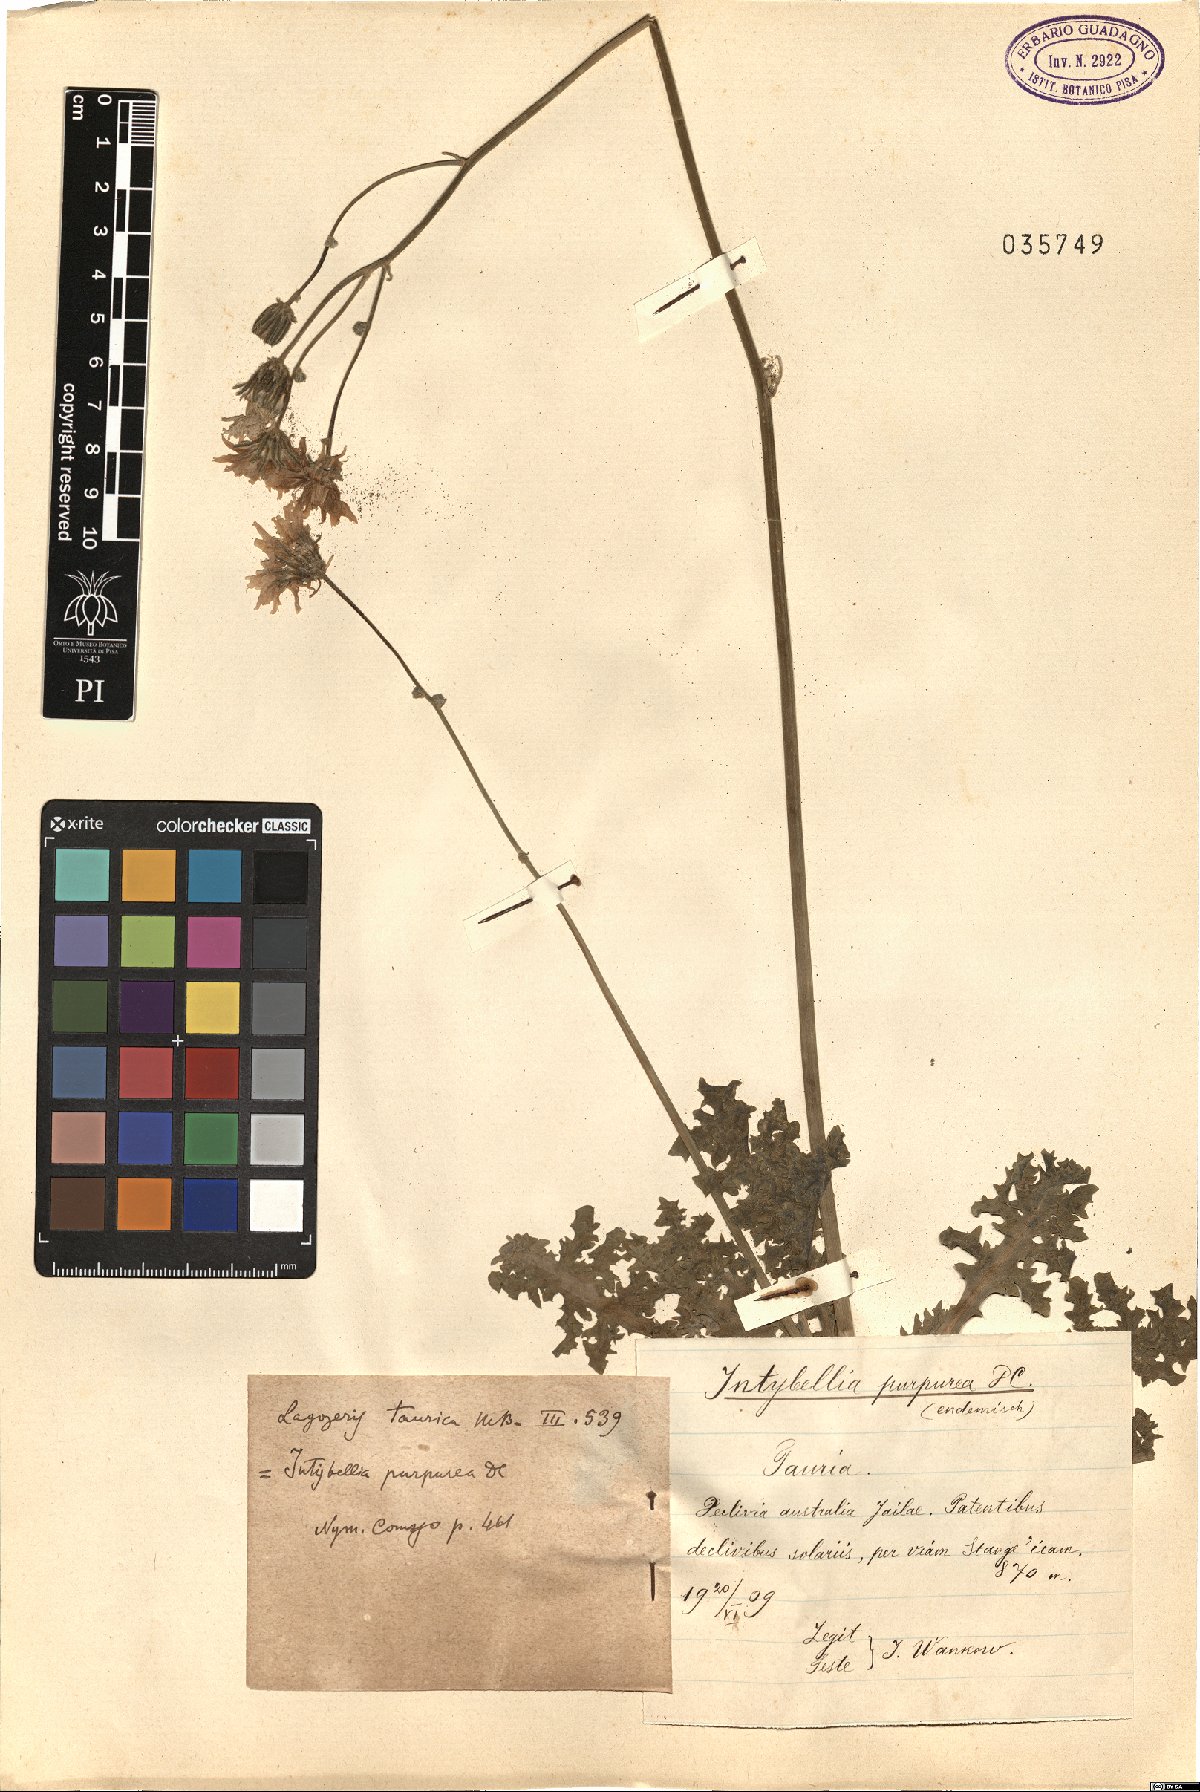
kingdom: Plantae
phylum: Tracheophyta
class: Magnoliopsida
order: Asterales
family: Asteraceae
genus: Crepis
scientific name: Crepis sancta
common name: Hawk's-beard
